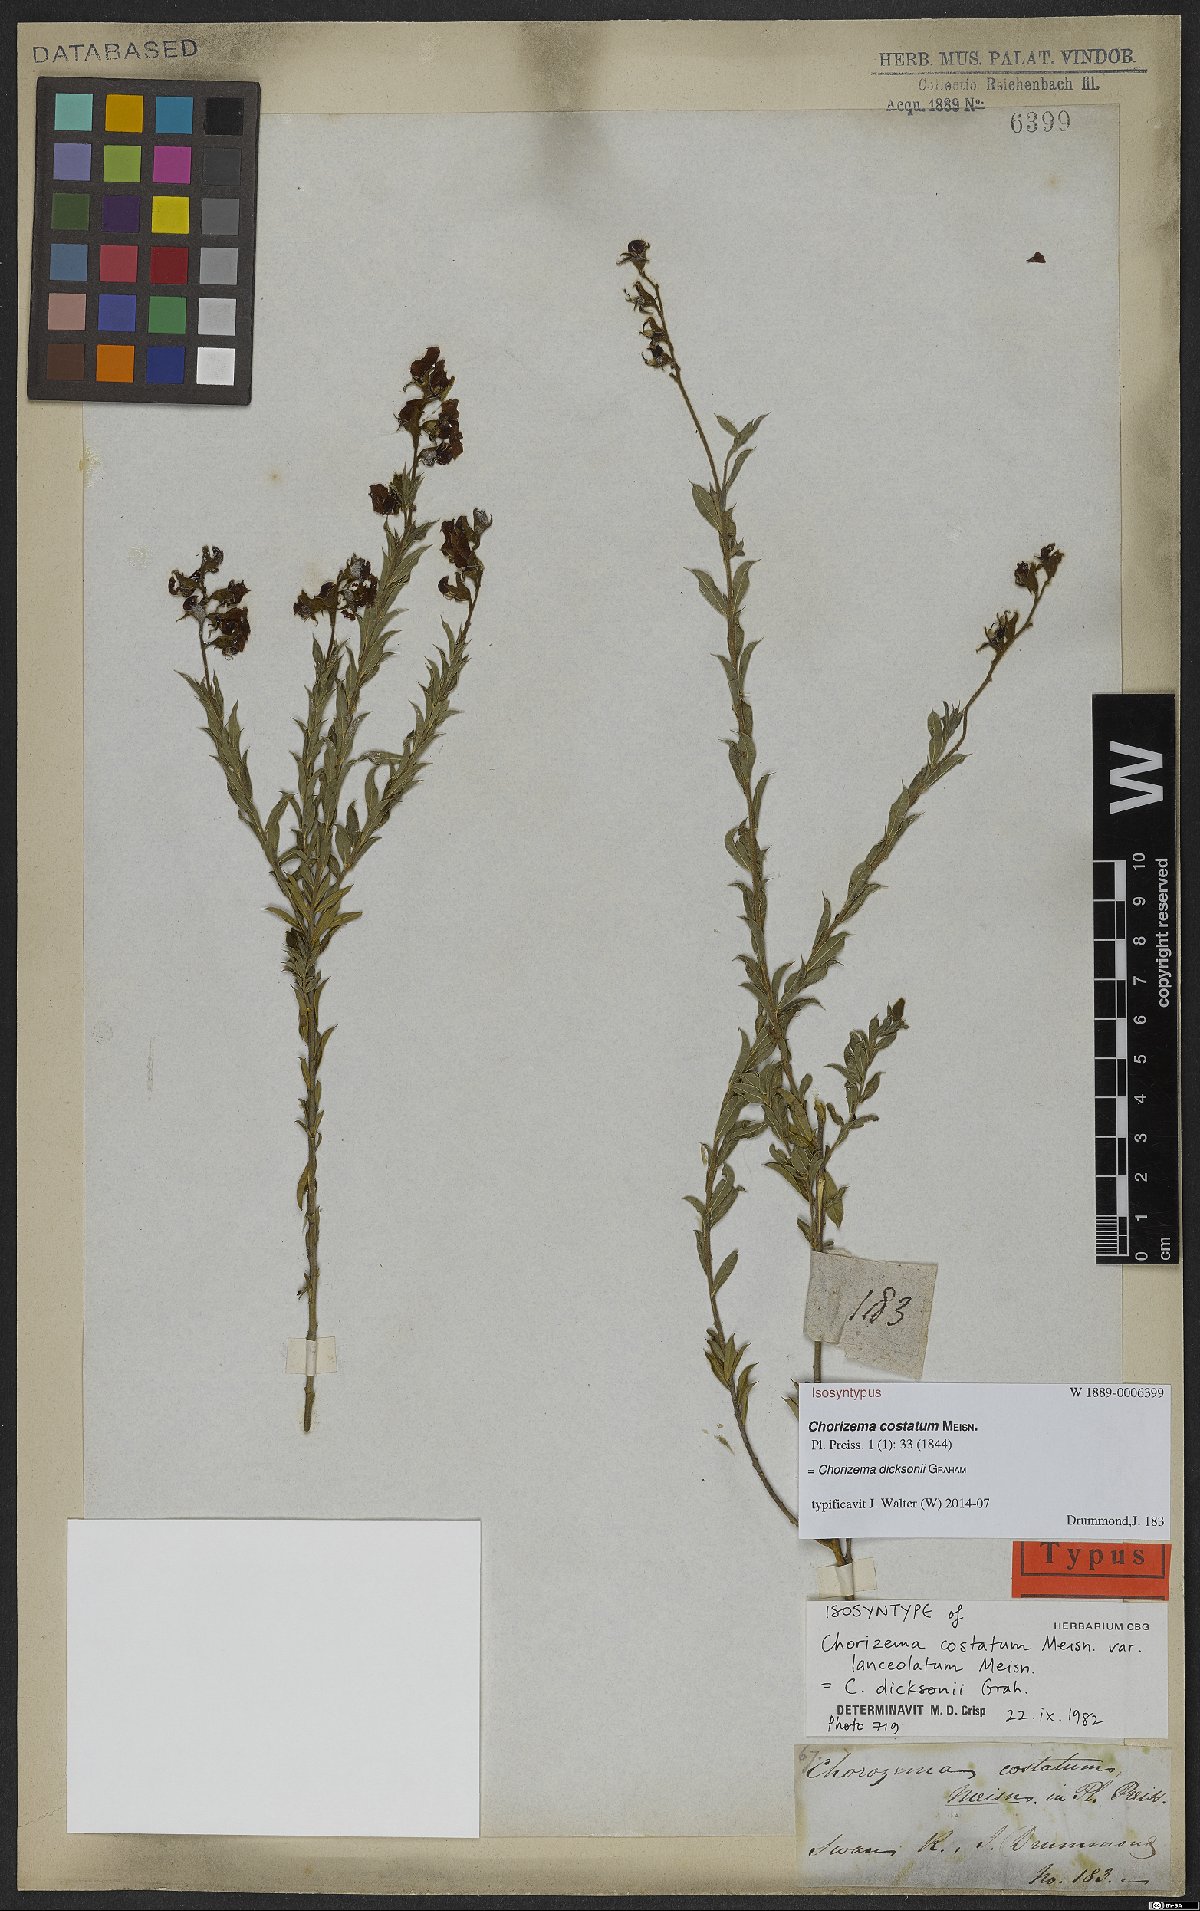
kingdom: Plantae
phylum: Tracheophyta
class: Magnoliopsida
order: Fabales
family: Fabaceae
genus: Chorizema
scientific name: Chorizema dicksonii
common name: Yellow-eyed flame-pea
